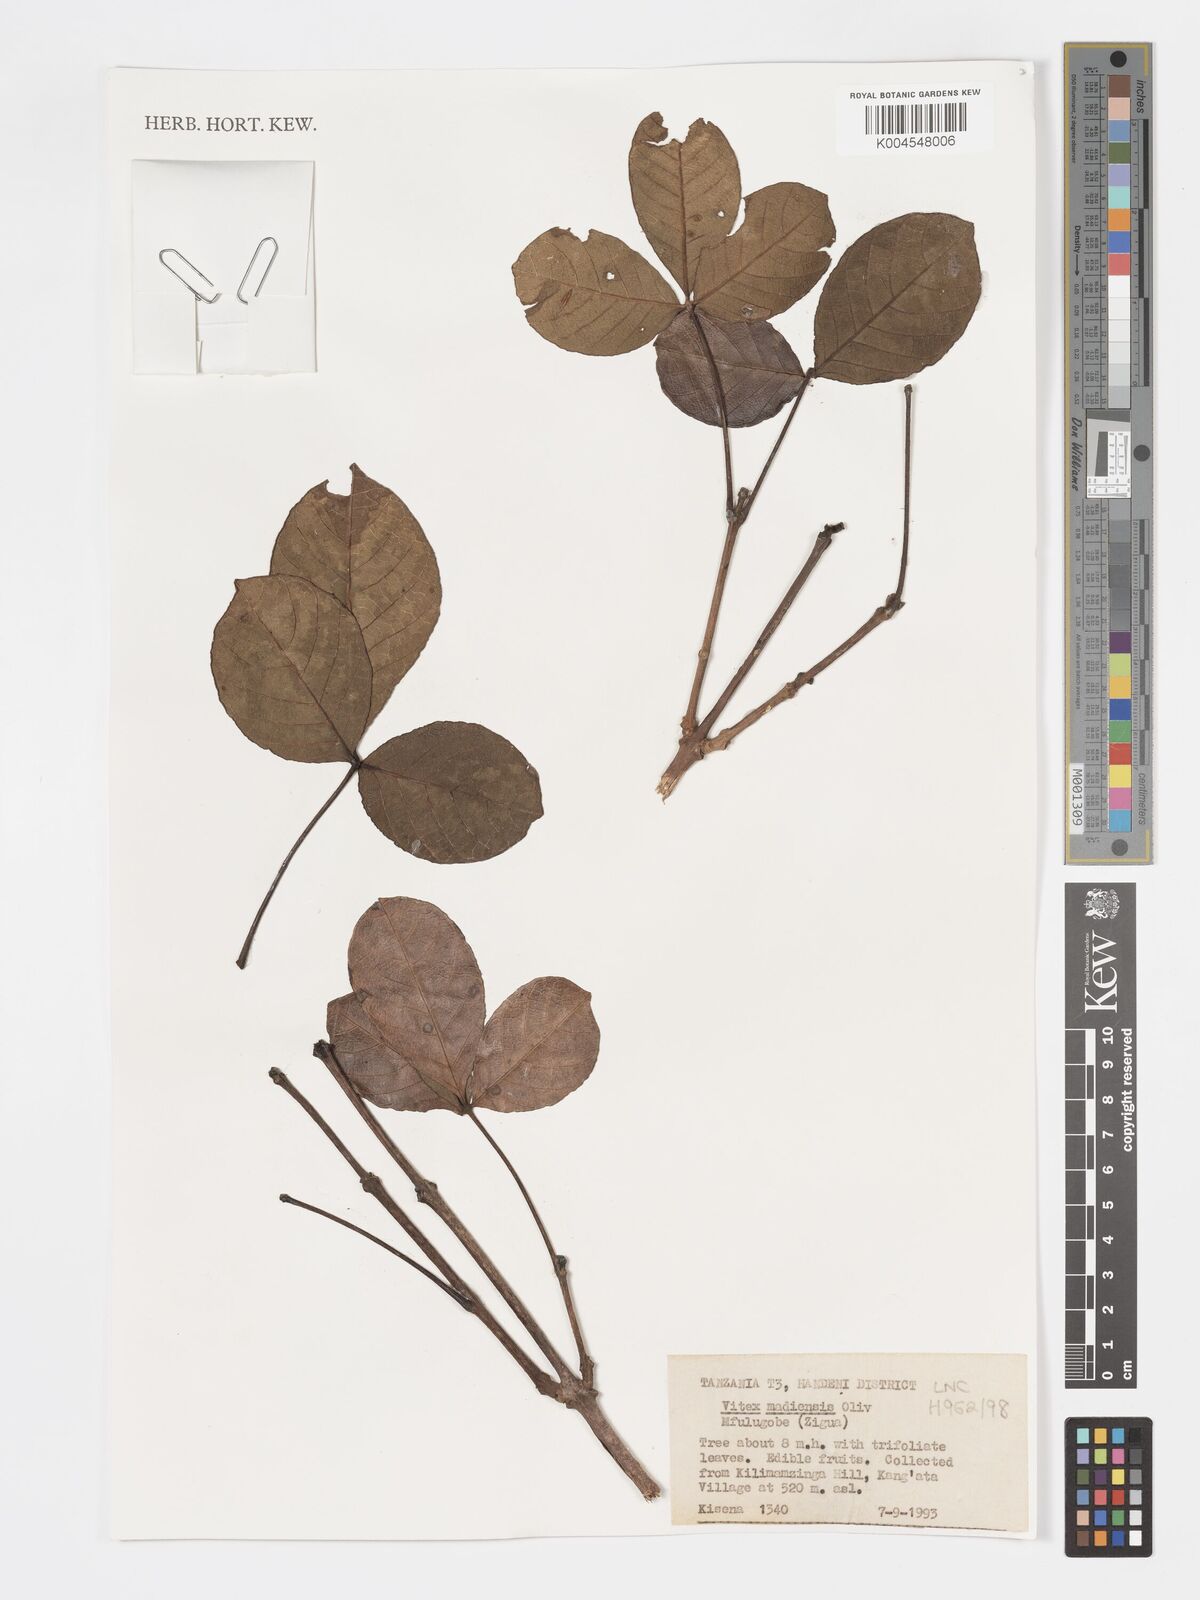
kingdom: Plantae
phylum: Tracheophyta
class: Magnoliopsida
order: Lamiales
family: Lamiaceae
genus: Vitex
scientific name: Vitex madiensis
